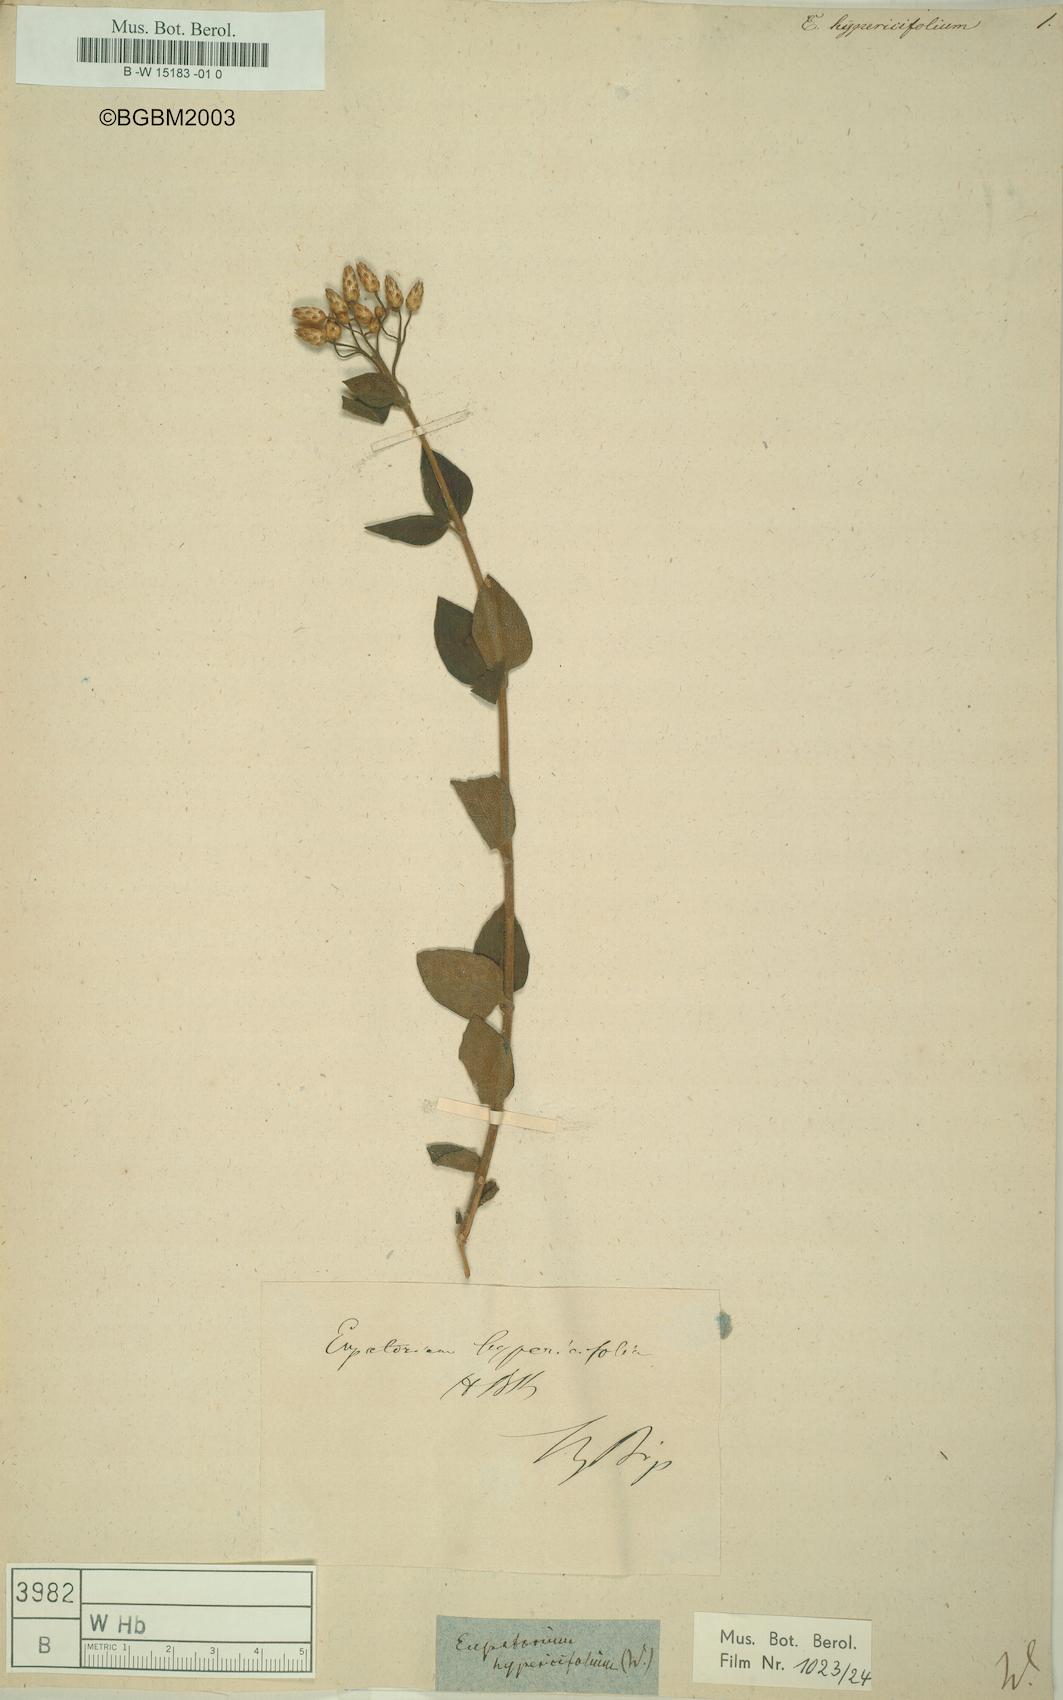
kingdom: Plantae
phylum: Tracheophyta
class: Magnoliopsida
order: Asterales
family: Asteraceae
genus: Chromolaena
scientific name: Chromolaena hypericifolia
